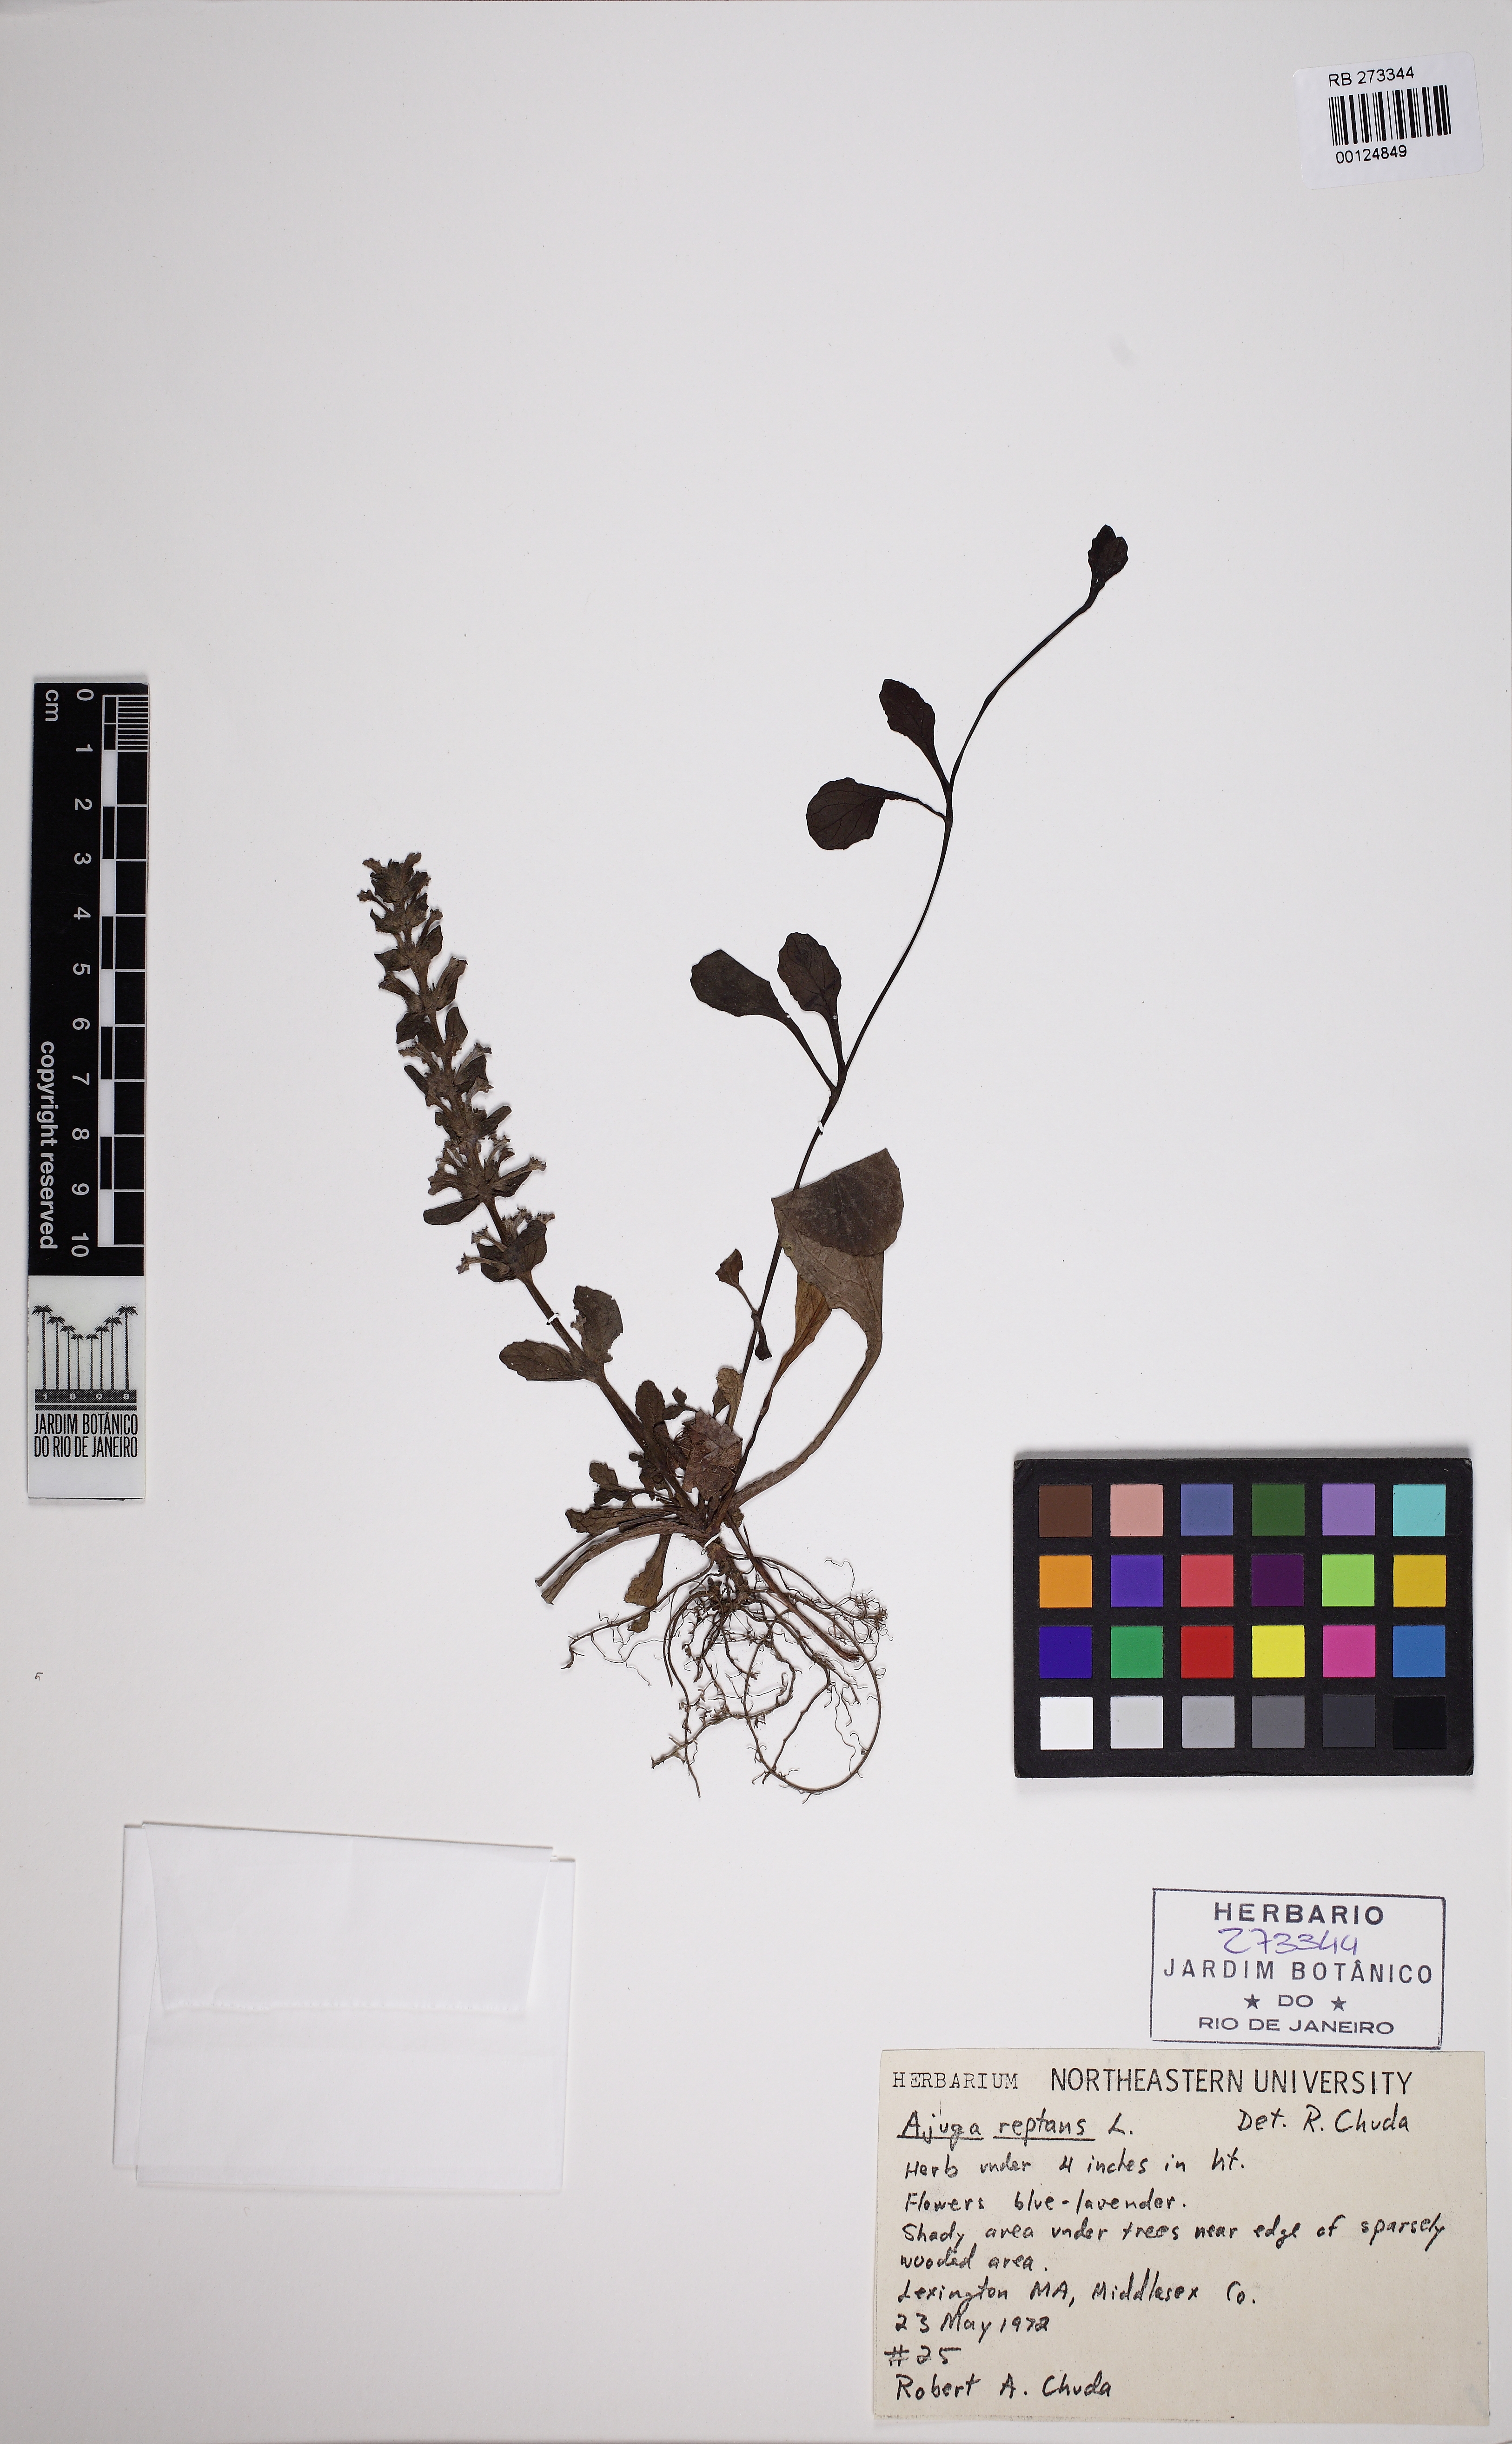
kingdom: Plantae
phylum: Tracheophyta
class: Magnoliopsida
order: Lamiales
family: Lamiaceae
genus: Ajuga
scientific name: Ajuga reptans
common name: Bugle
